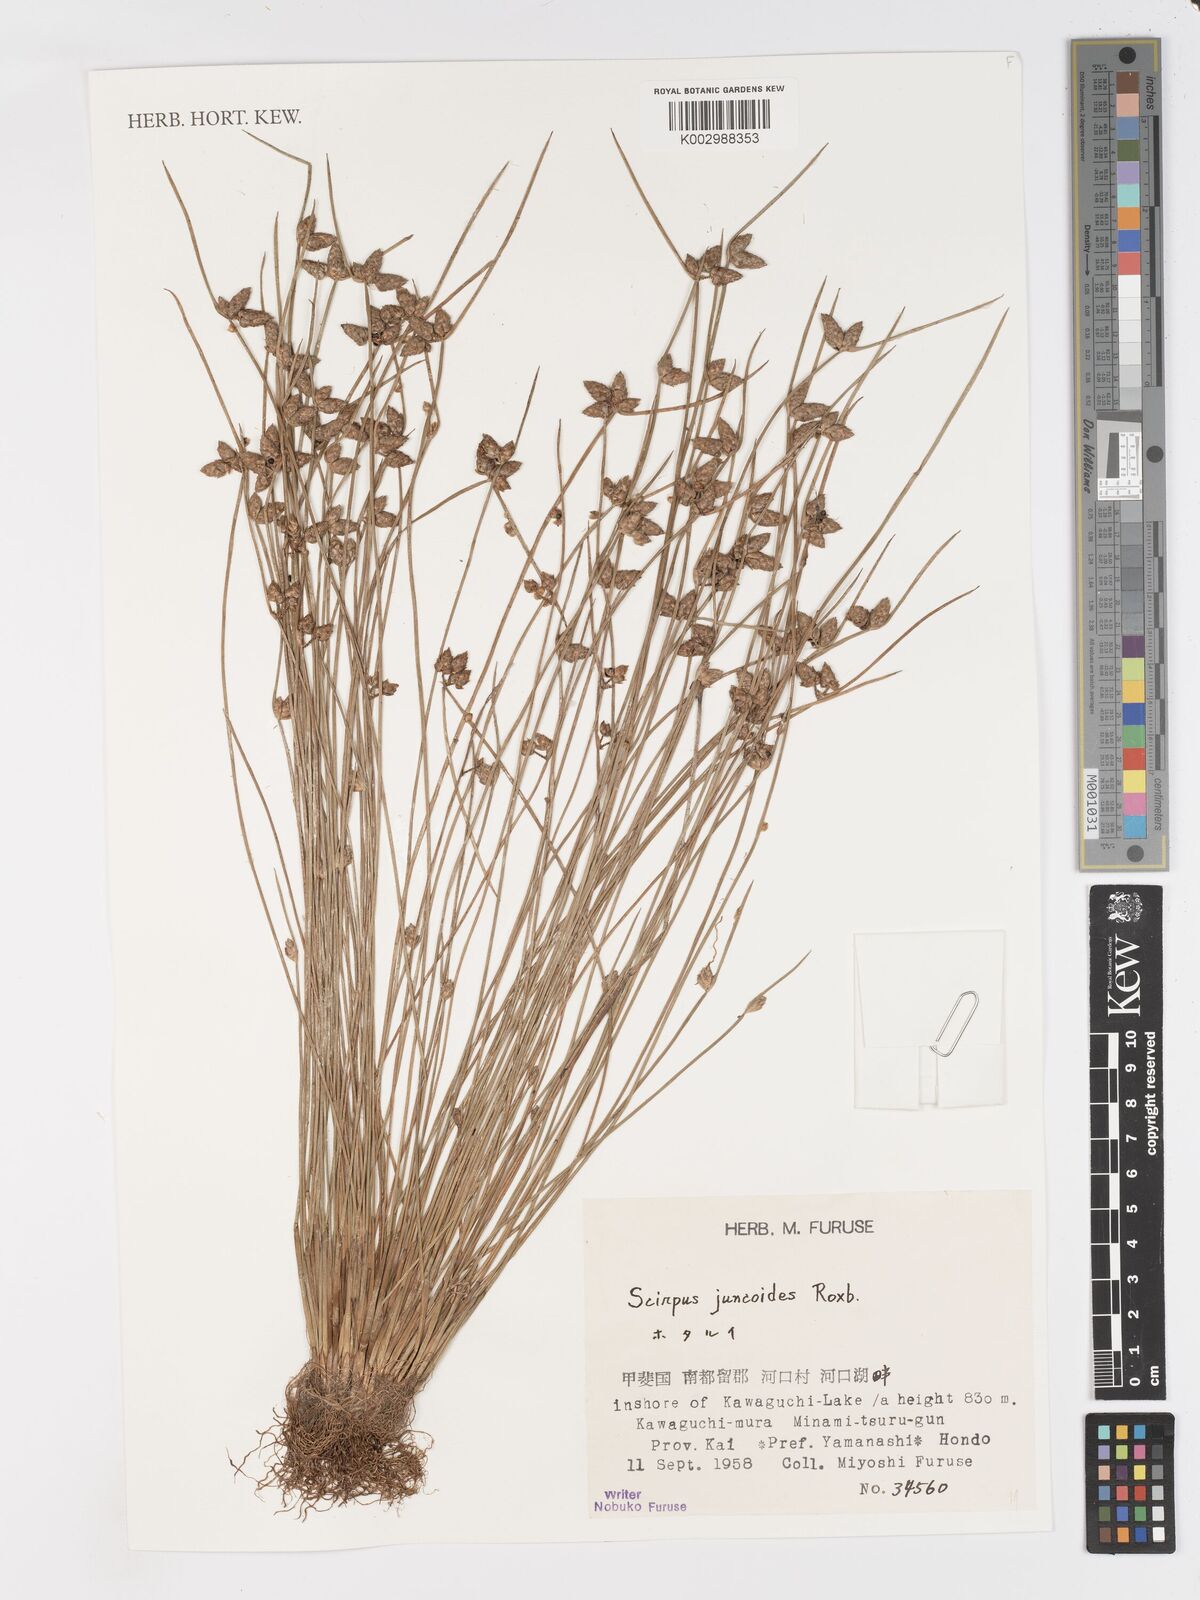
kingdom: Plantae
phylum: Tracheophyta
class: Liliopsida
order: Poales
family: Cyperaceae
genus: Schoenoplectiella
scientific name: Schoenoplectiella juncoides
